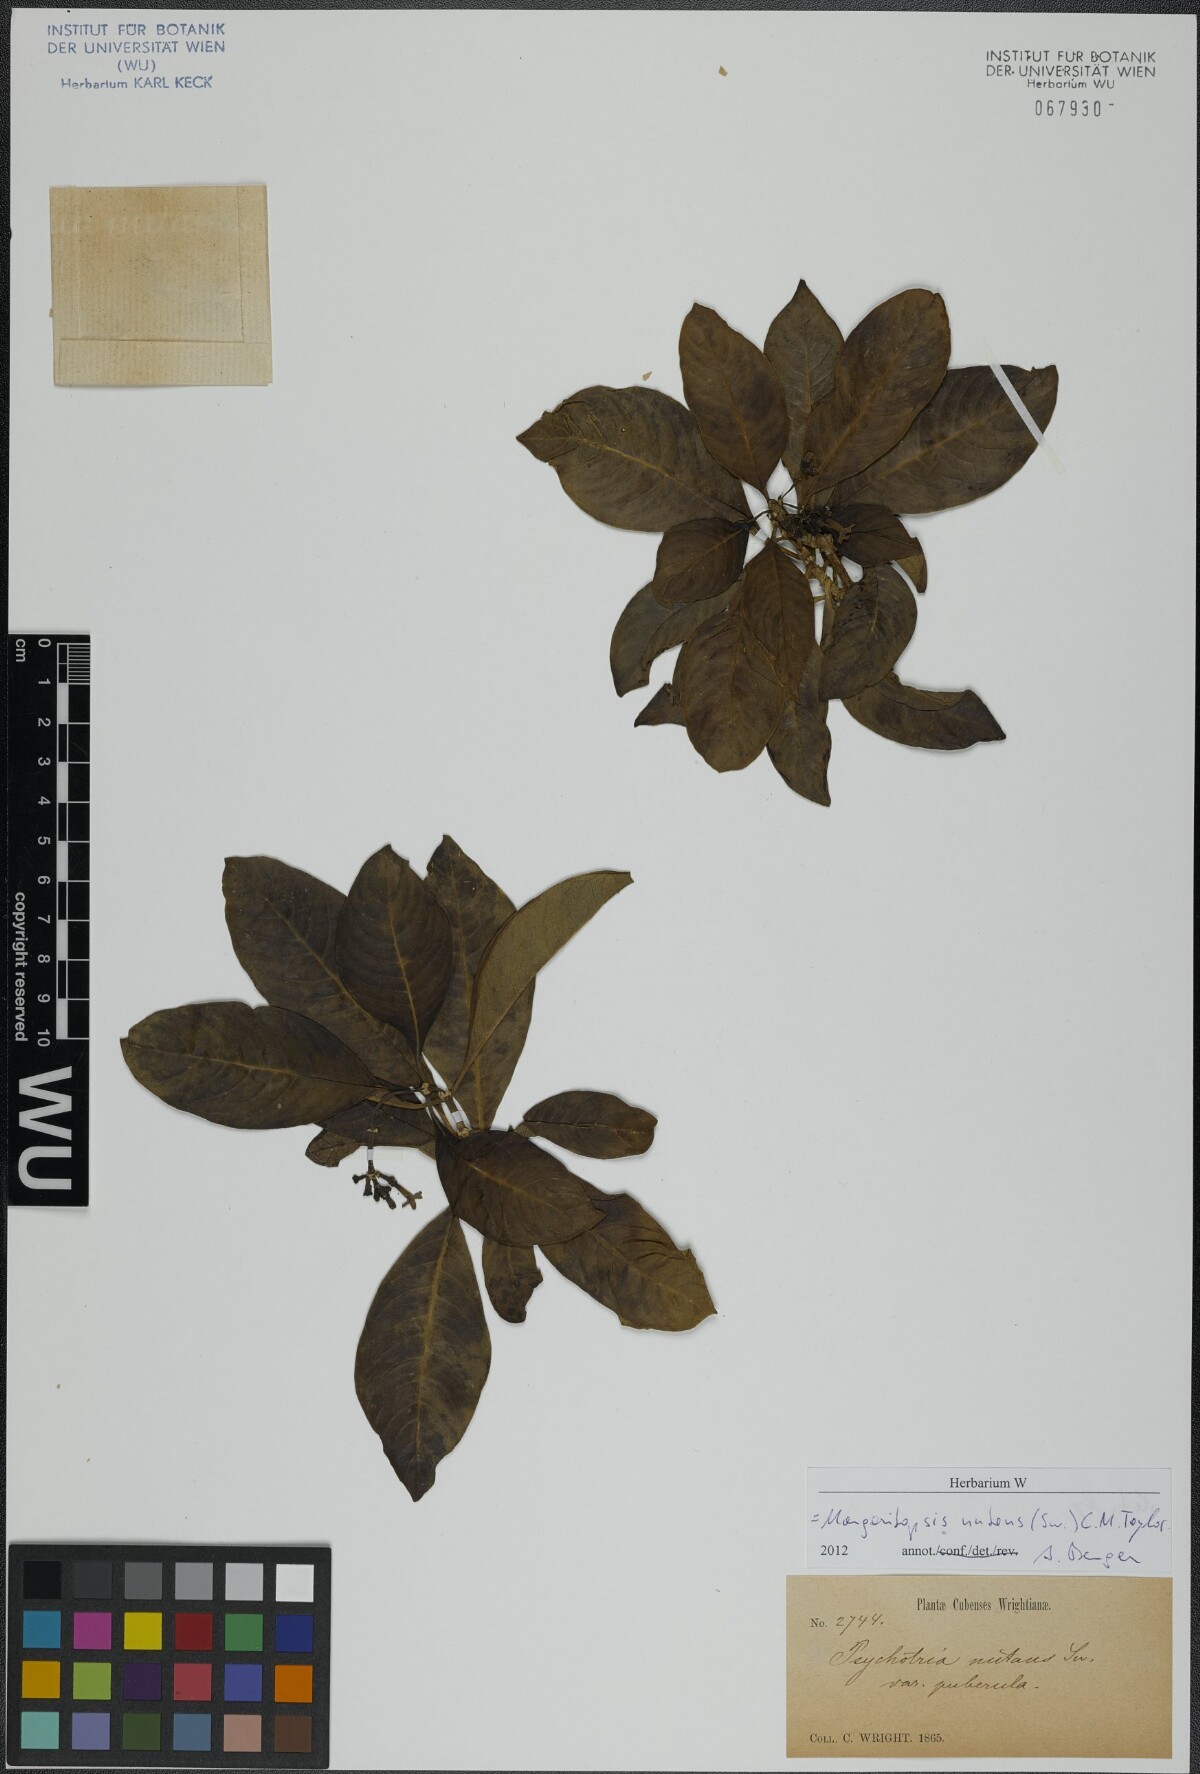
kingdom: Plantae
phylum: Tracheophyta
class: Magnoliopsida
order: Gentianales
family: Rubiaceae
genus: Eumachia
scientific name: Eumachia nutans
